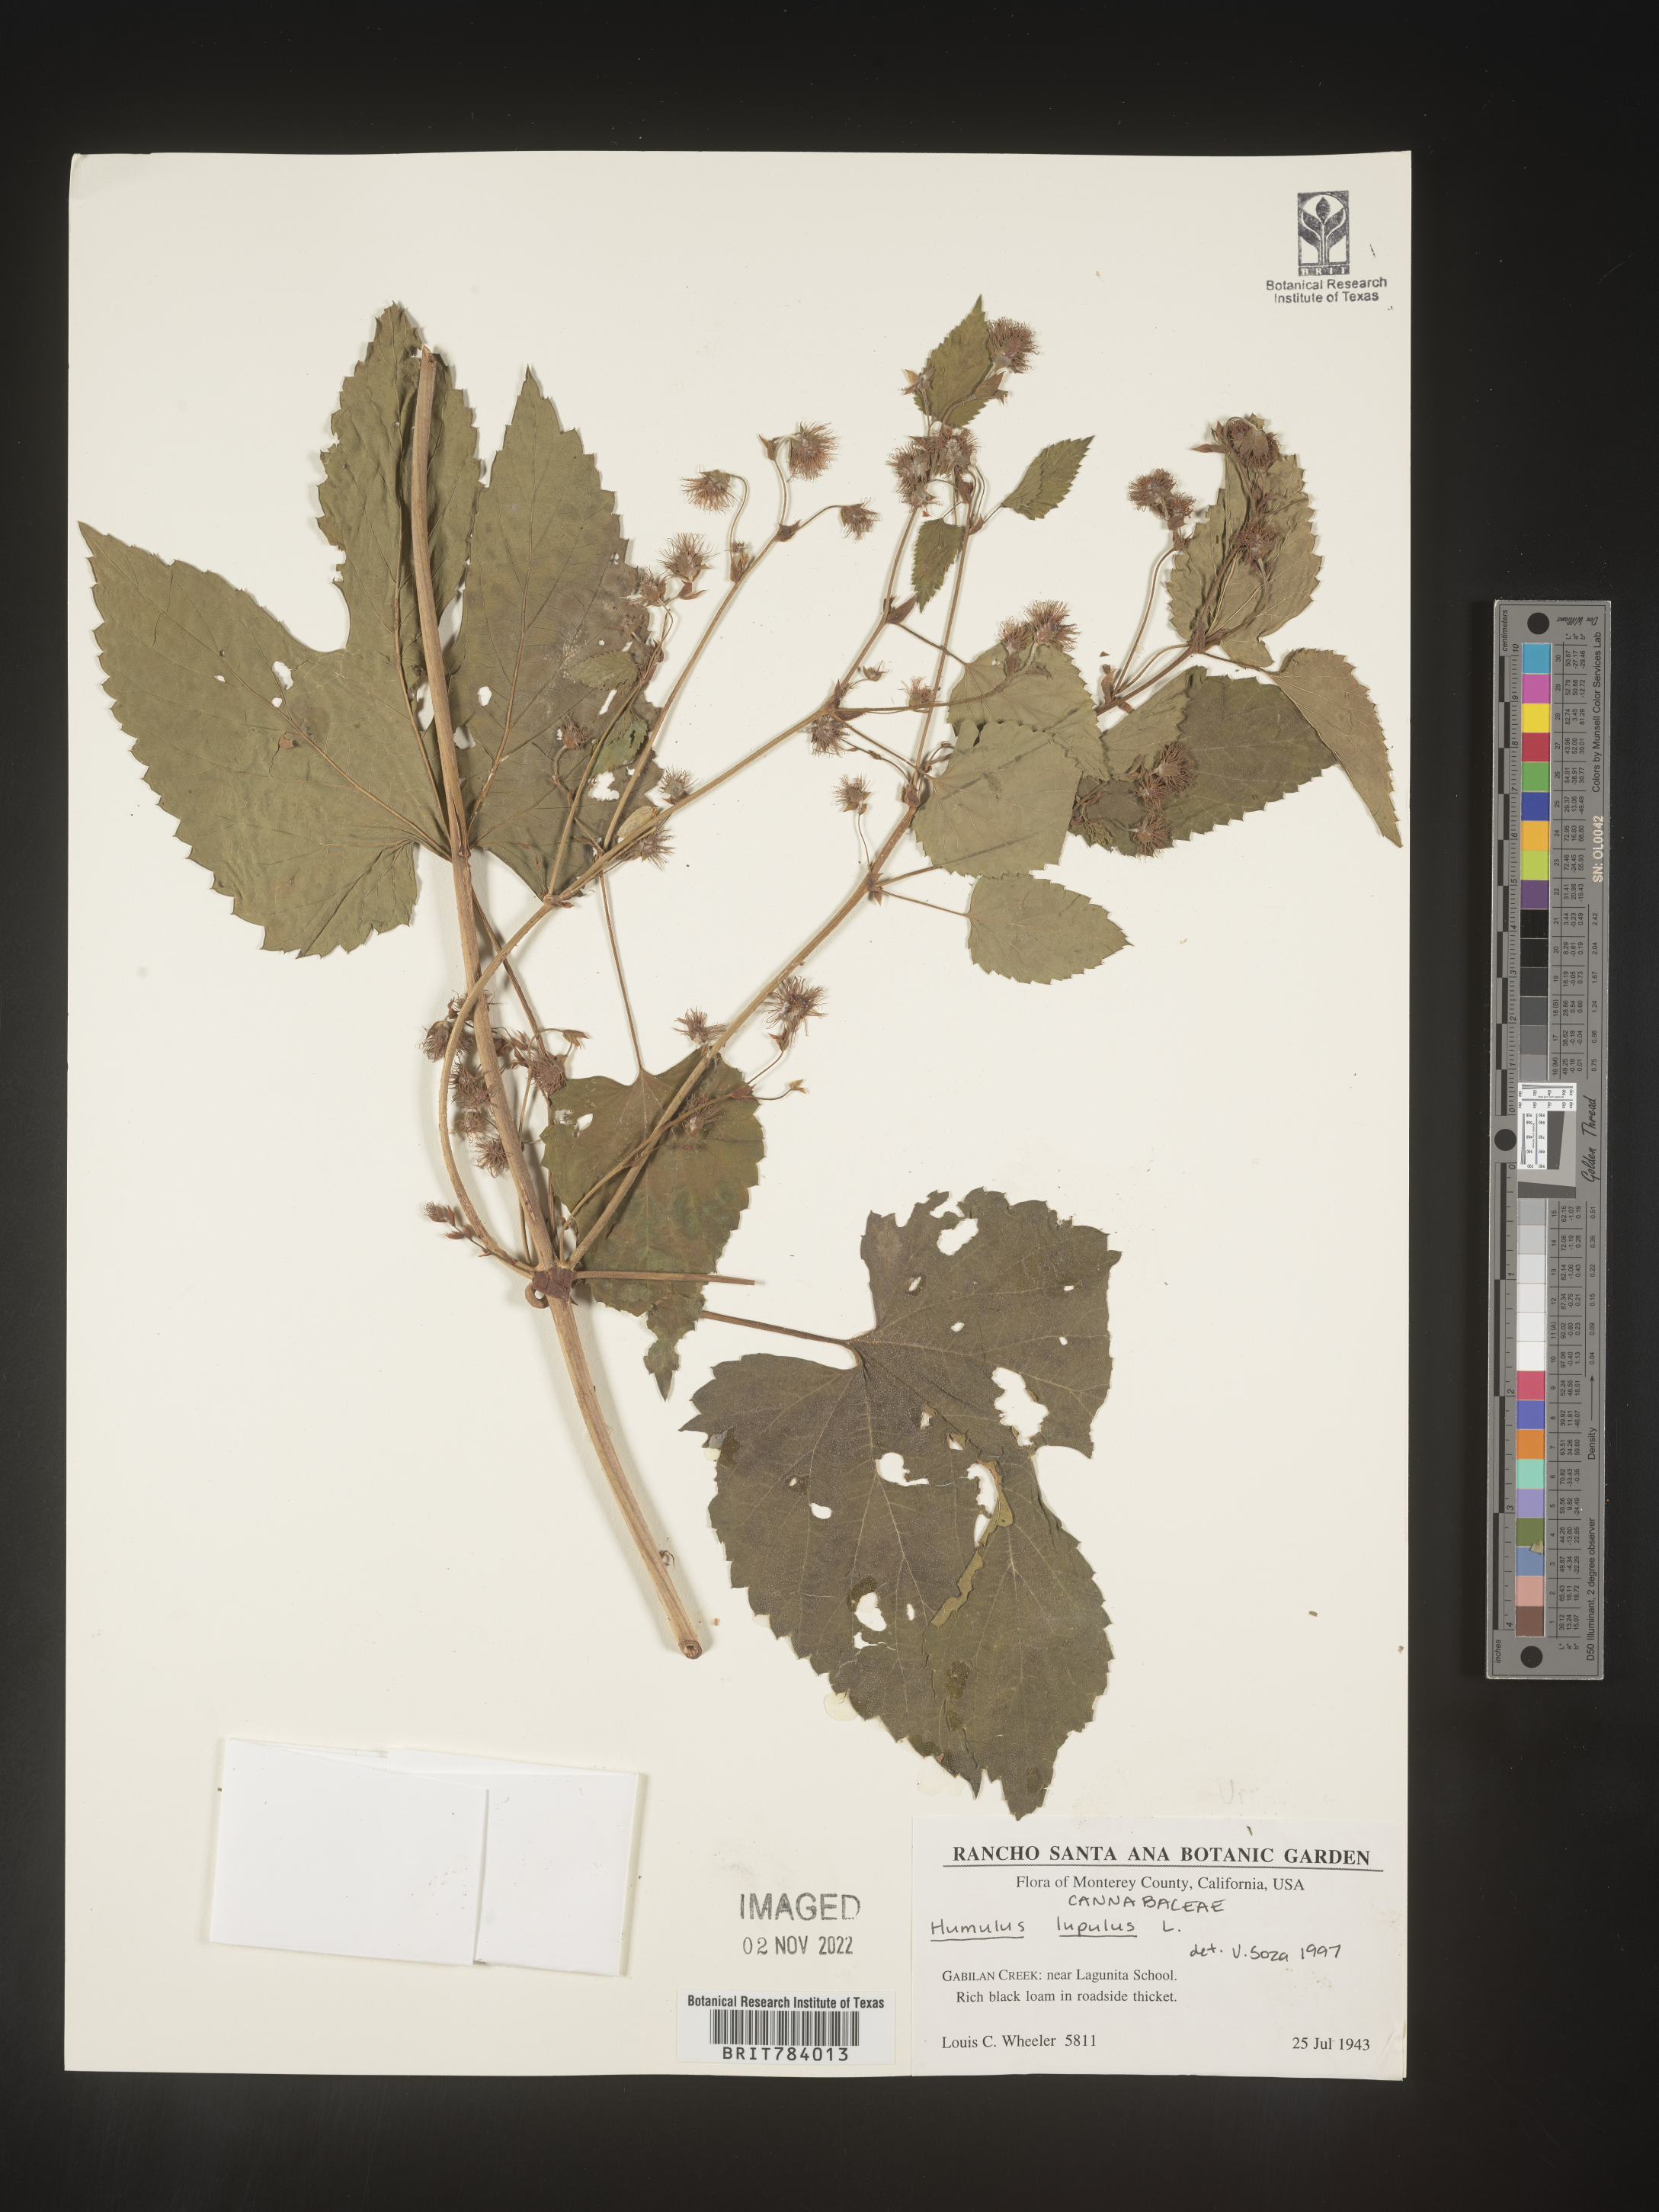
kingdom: Plantae
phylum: Tracheophyta
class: Magnoliopsida
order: Rosales
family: Cannabaceae
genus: Humulus
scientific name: Humulus lupulus
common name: Hop
